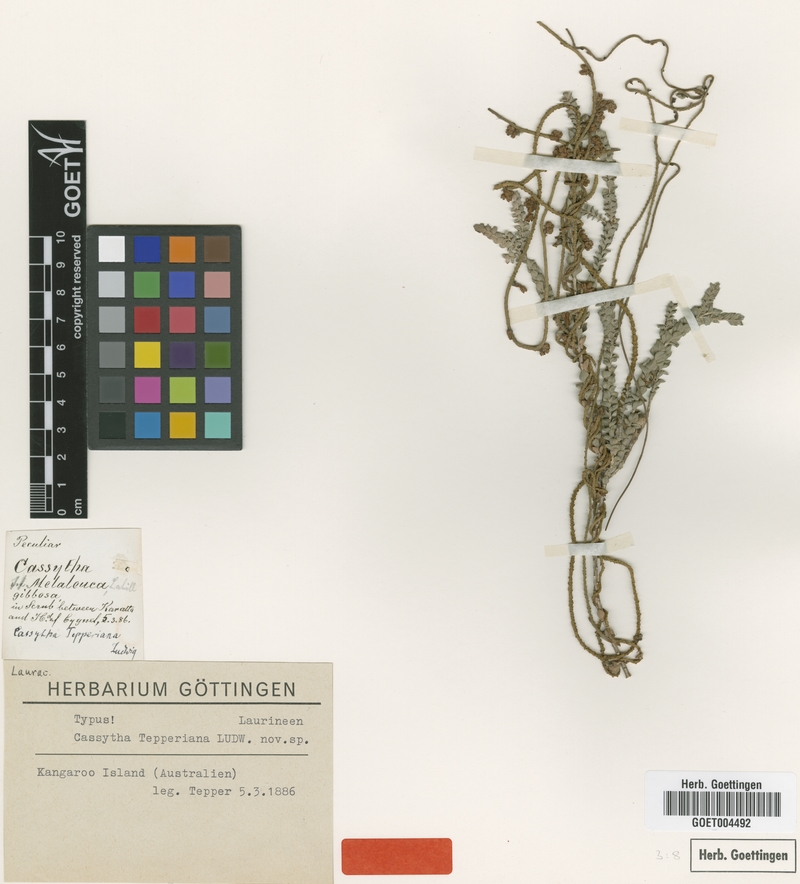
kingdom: Plantae
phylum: Tracheophyta
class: Magnoliopsida
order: Laurales
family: Lauraceae
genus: Cassytha
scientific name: Cassytha pubescens
